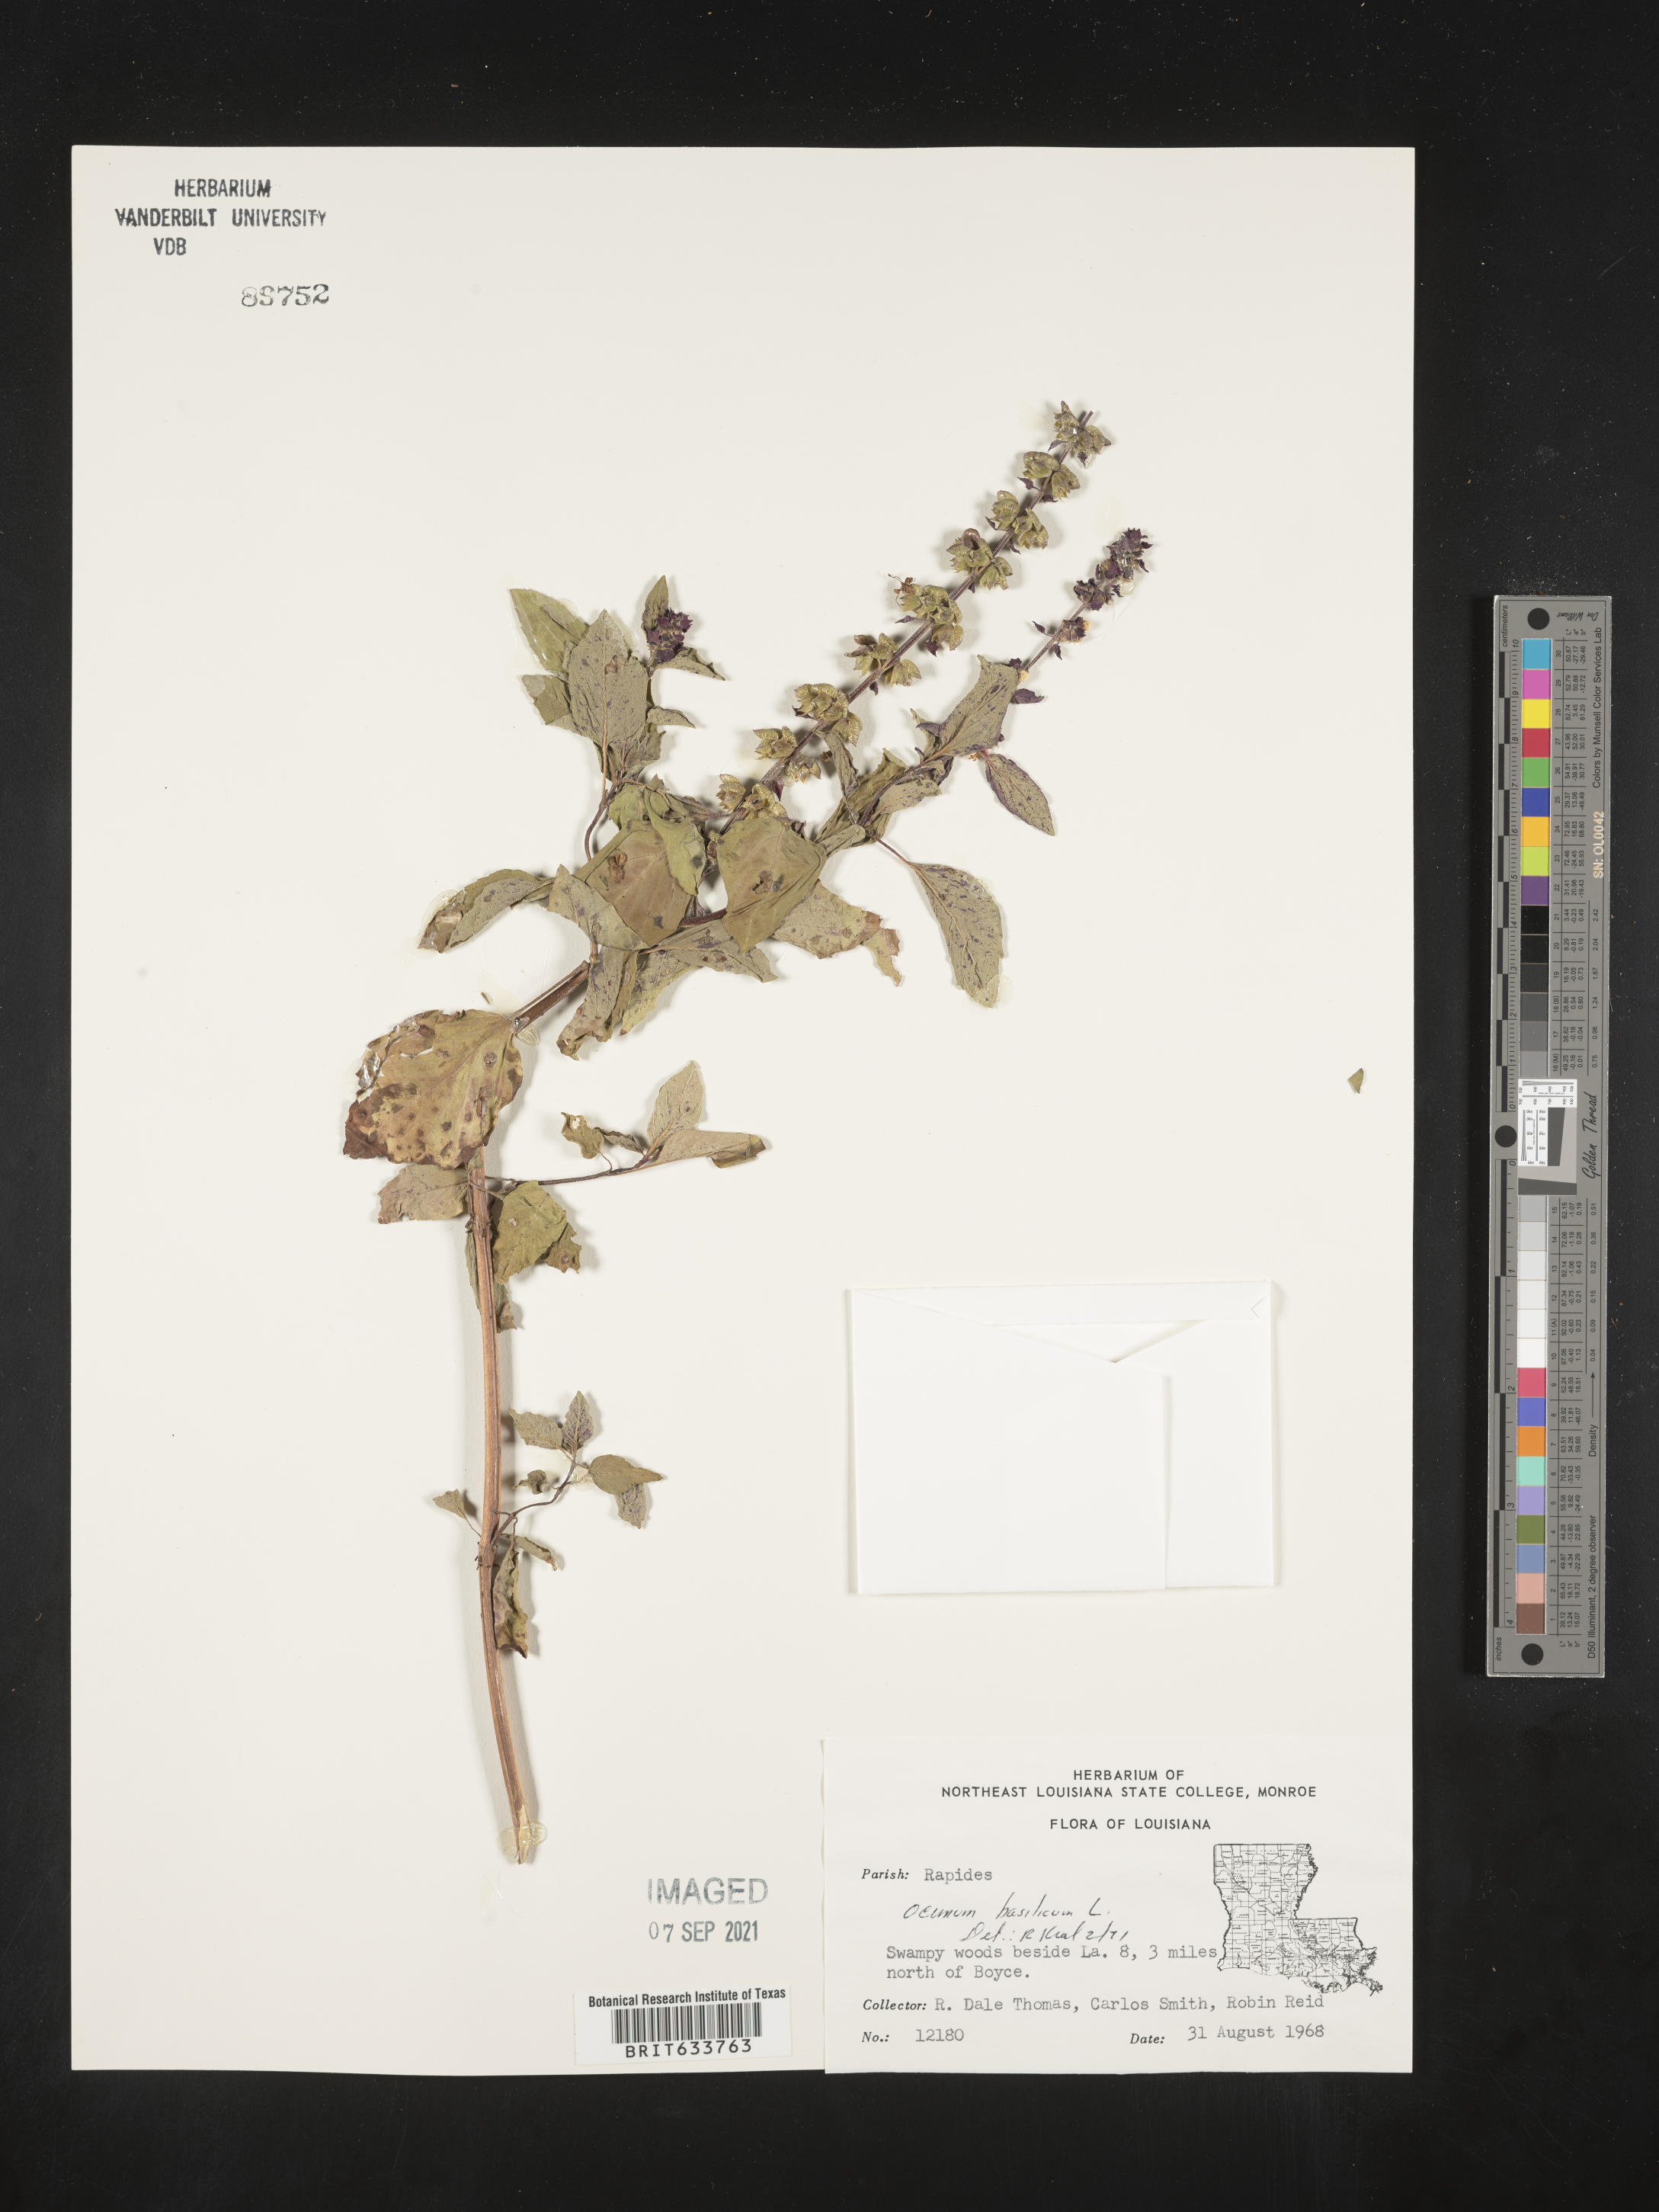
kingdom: Plantae
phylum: Tracheophyta
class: Magnoliopsida
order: Lamiales
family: Lamiaceae
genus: Ocimum
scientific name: Ocimum
